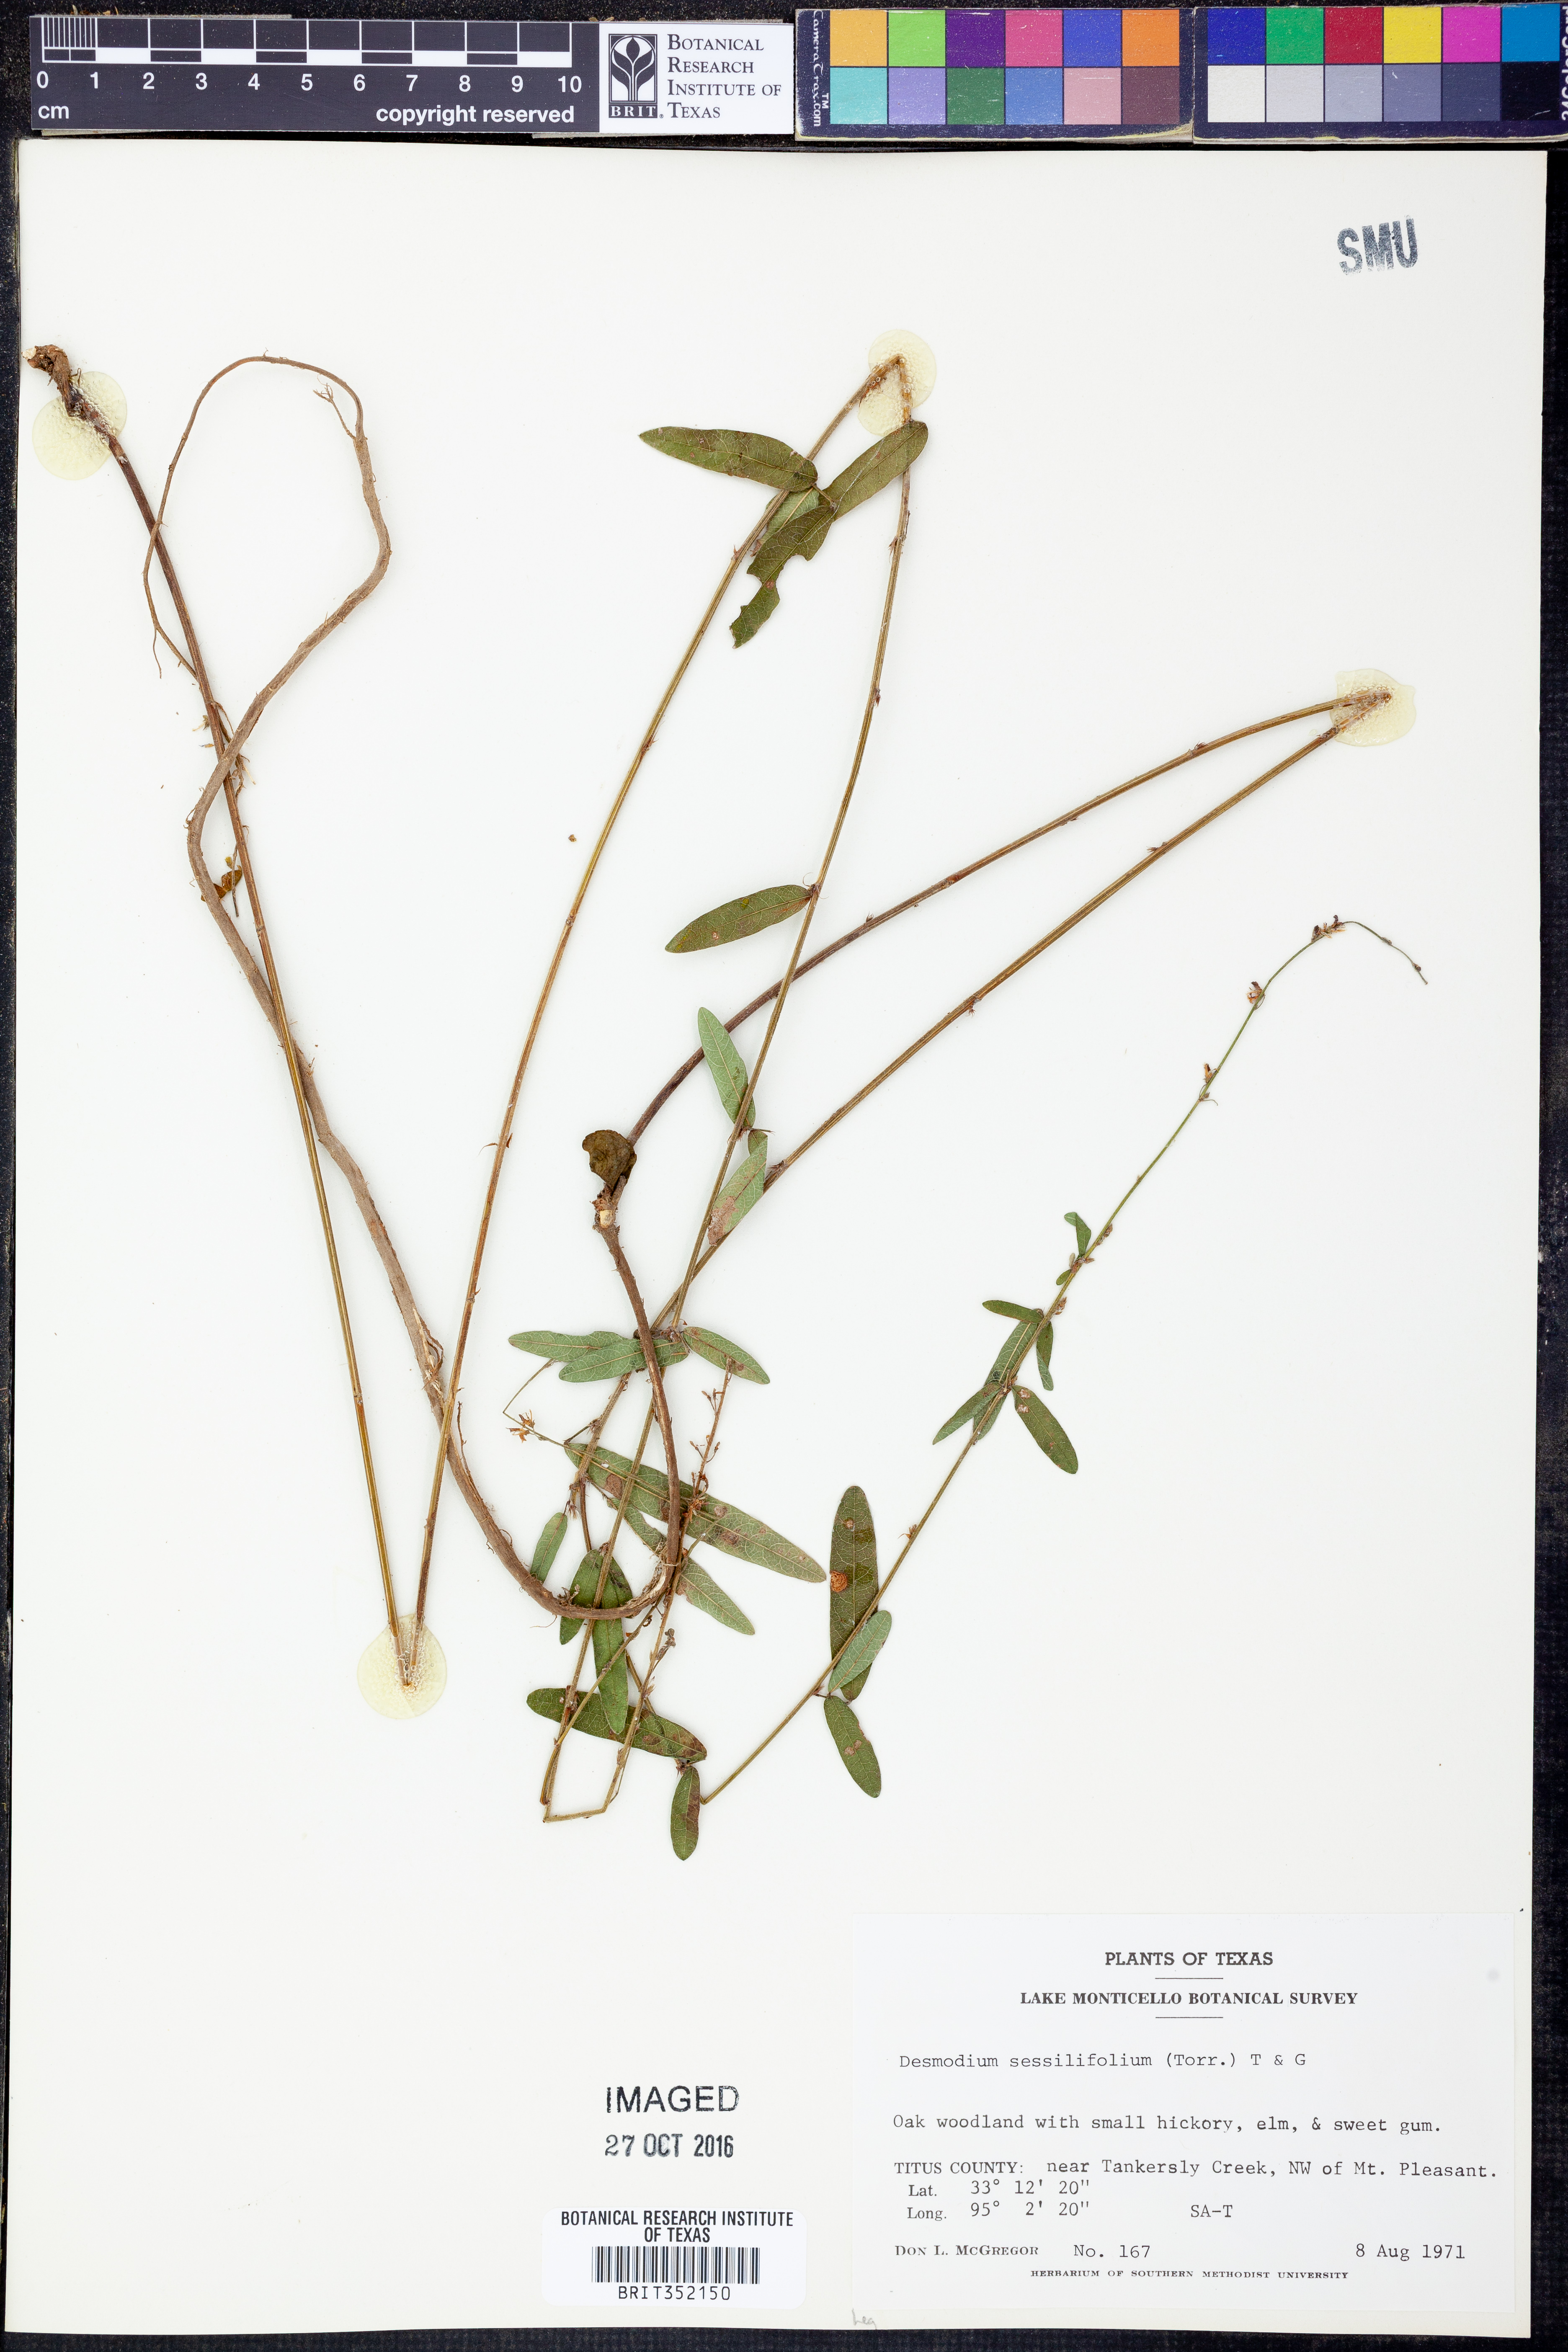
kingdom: Plantae
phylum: Tracheophyta
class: Magnoliopsida
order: Fabales
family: Fabaceae
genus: Desmodium
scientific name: Desmodium sessilifolium
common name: Sessile tick-clover
